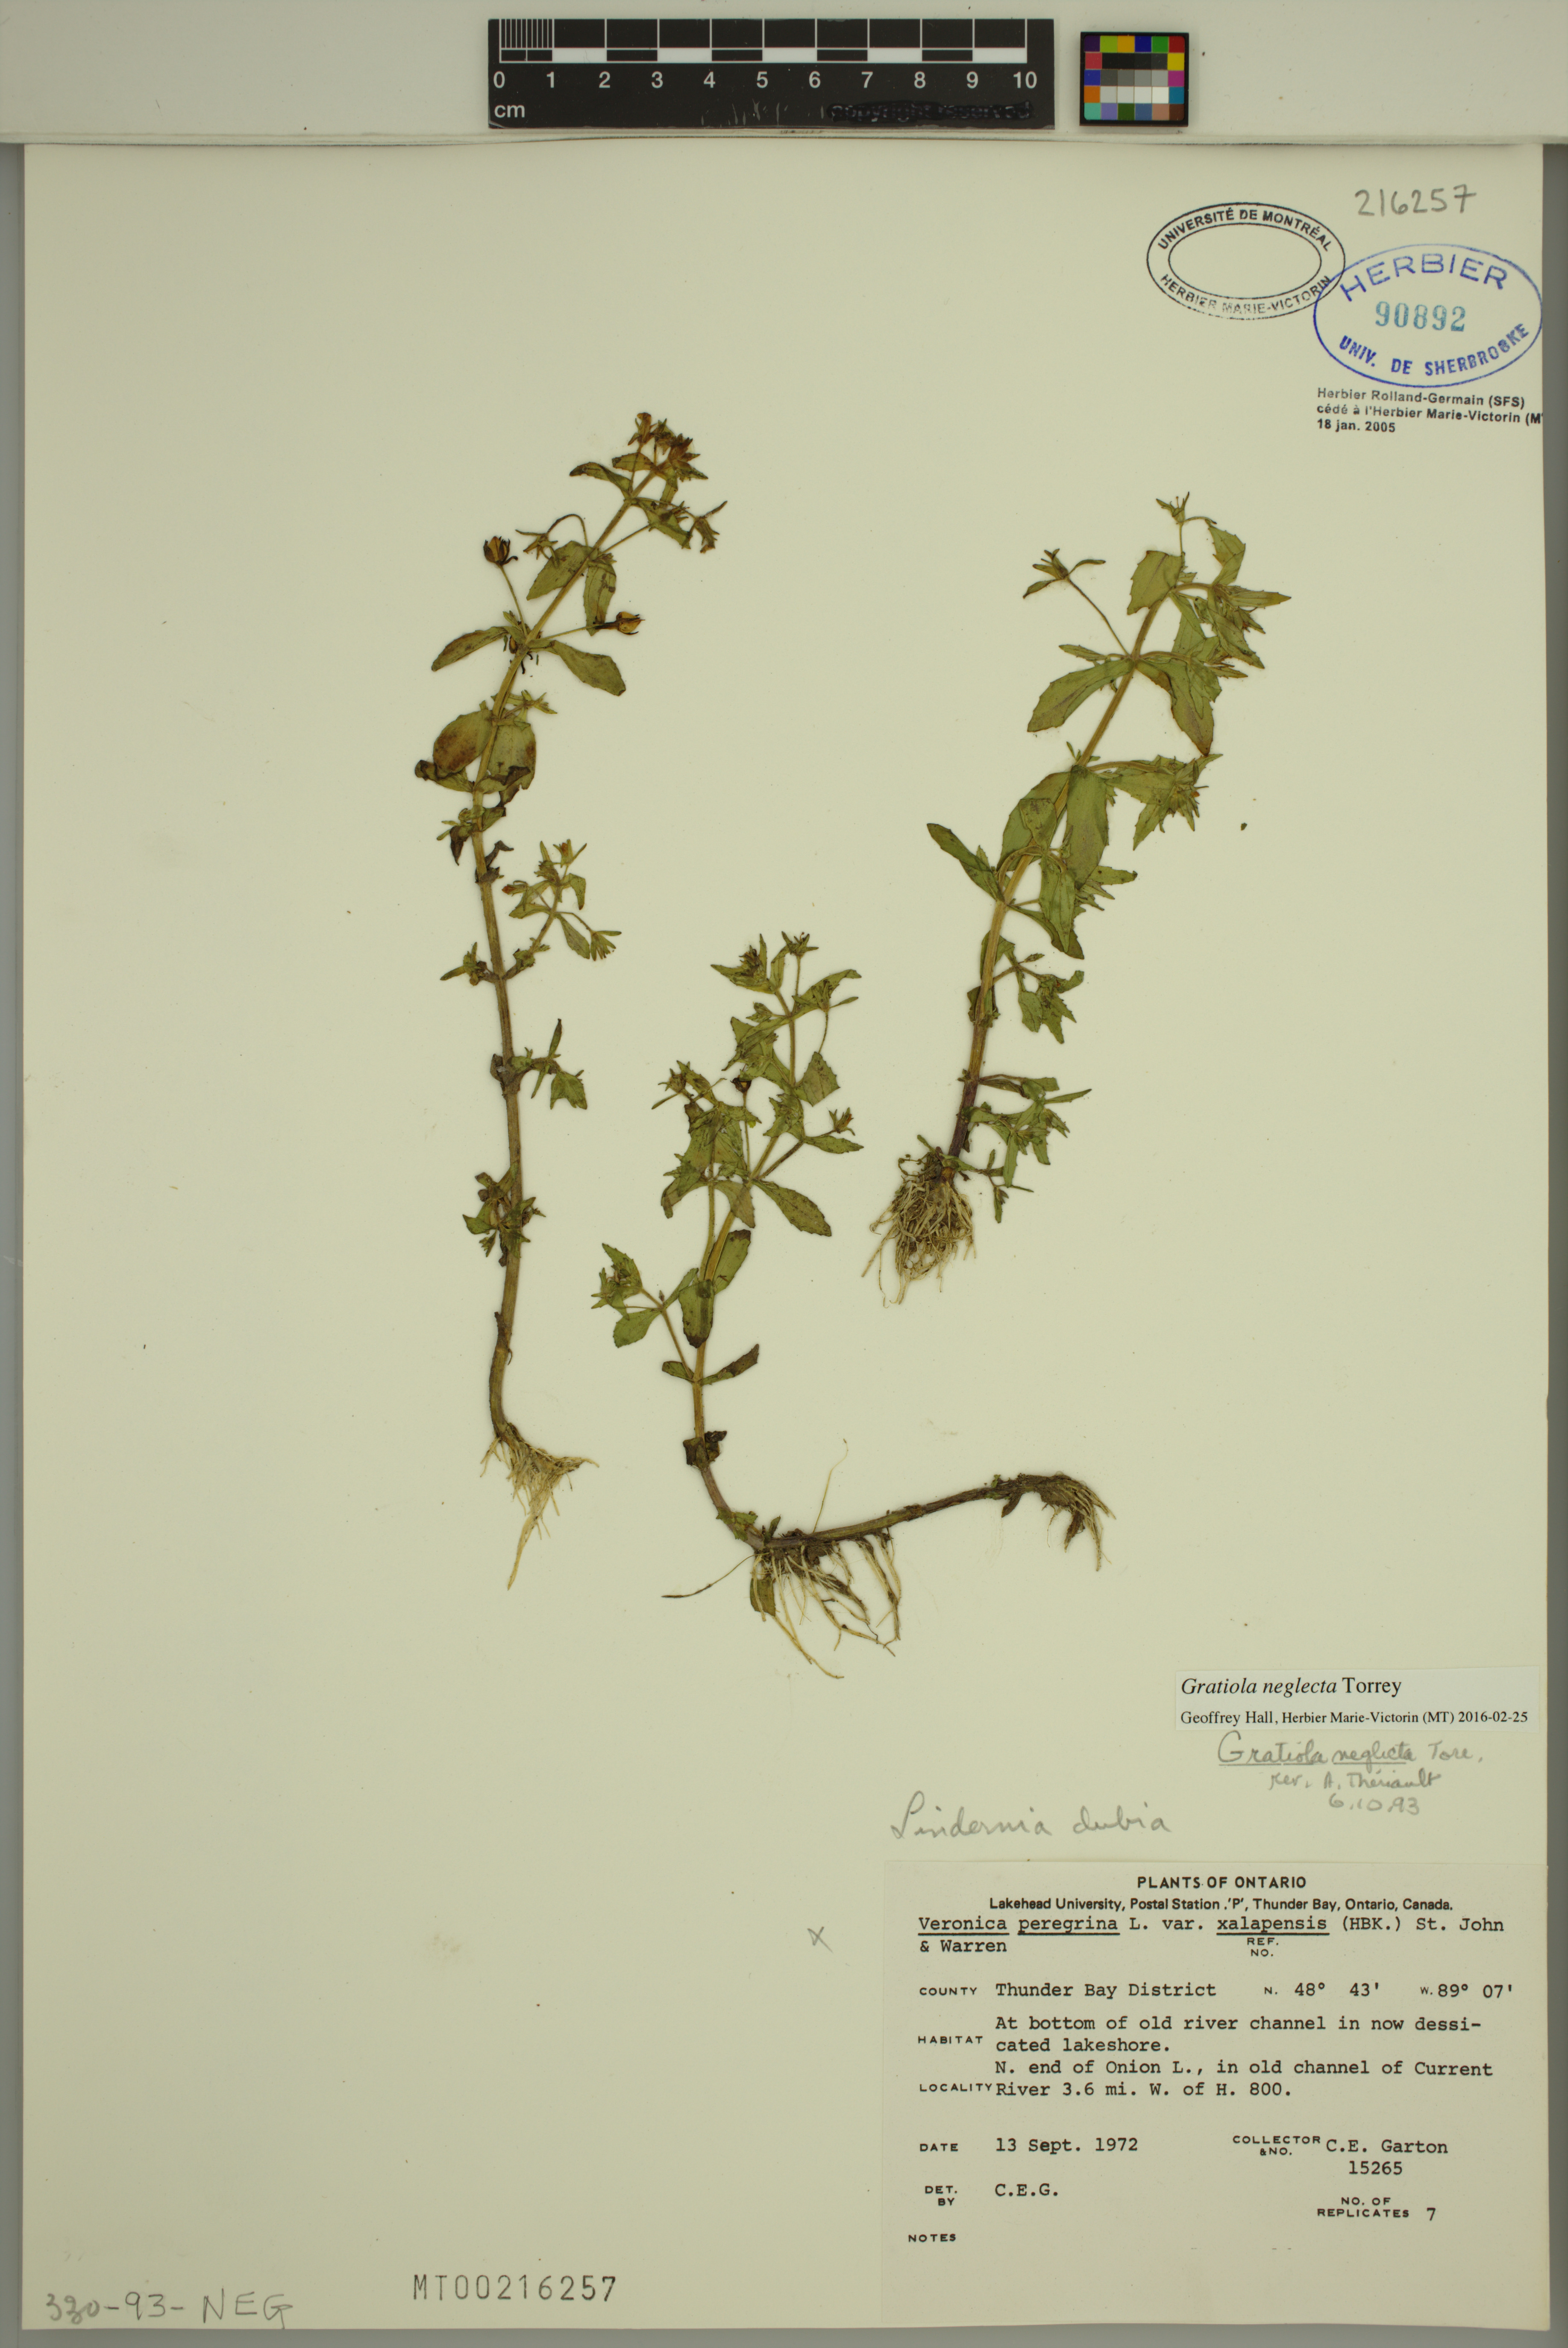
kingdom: Plantae
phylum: Tracheophyta
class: Magnoliopsida
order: Lamiales
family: Plantaginaceae
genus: Gratiola
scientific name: Gratiola neglecta
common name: American hedge-hyssop
